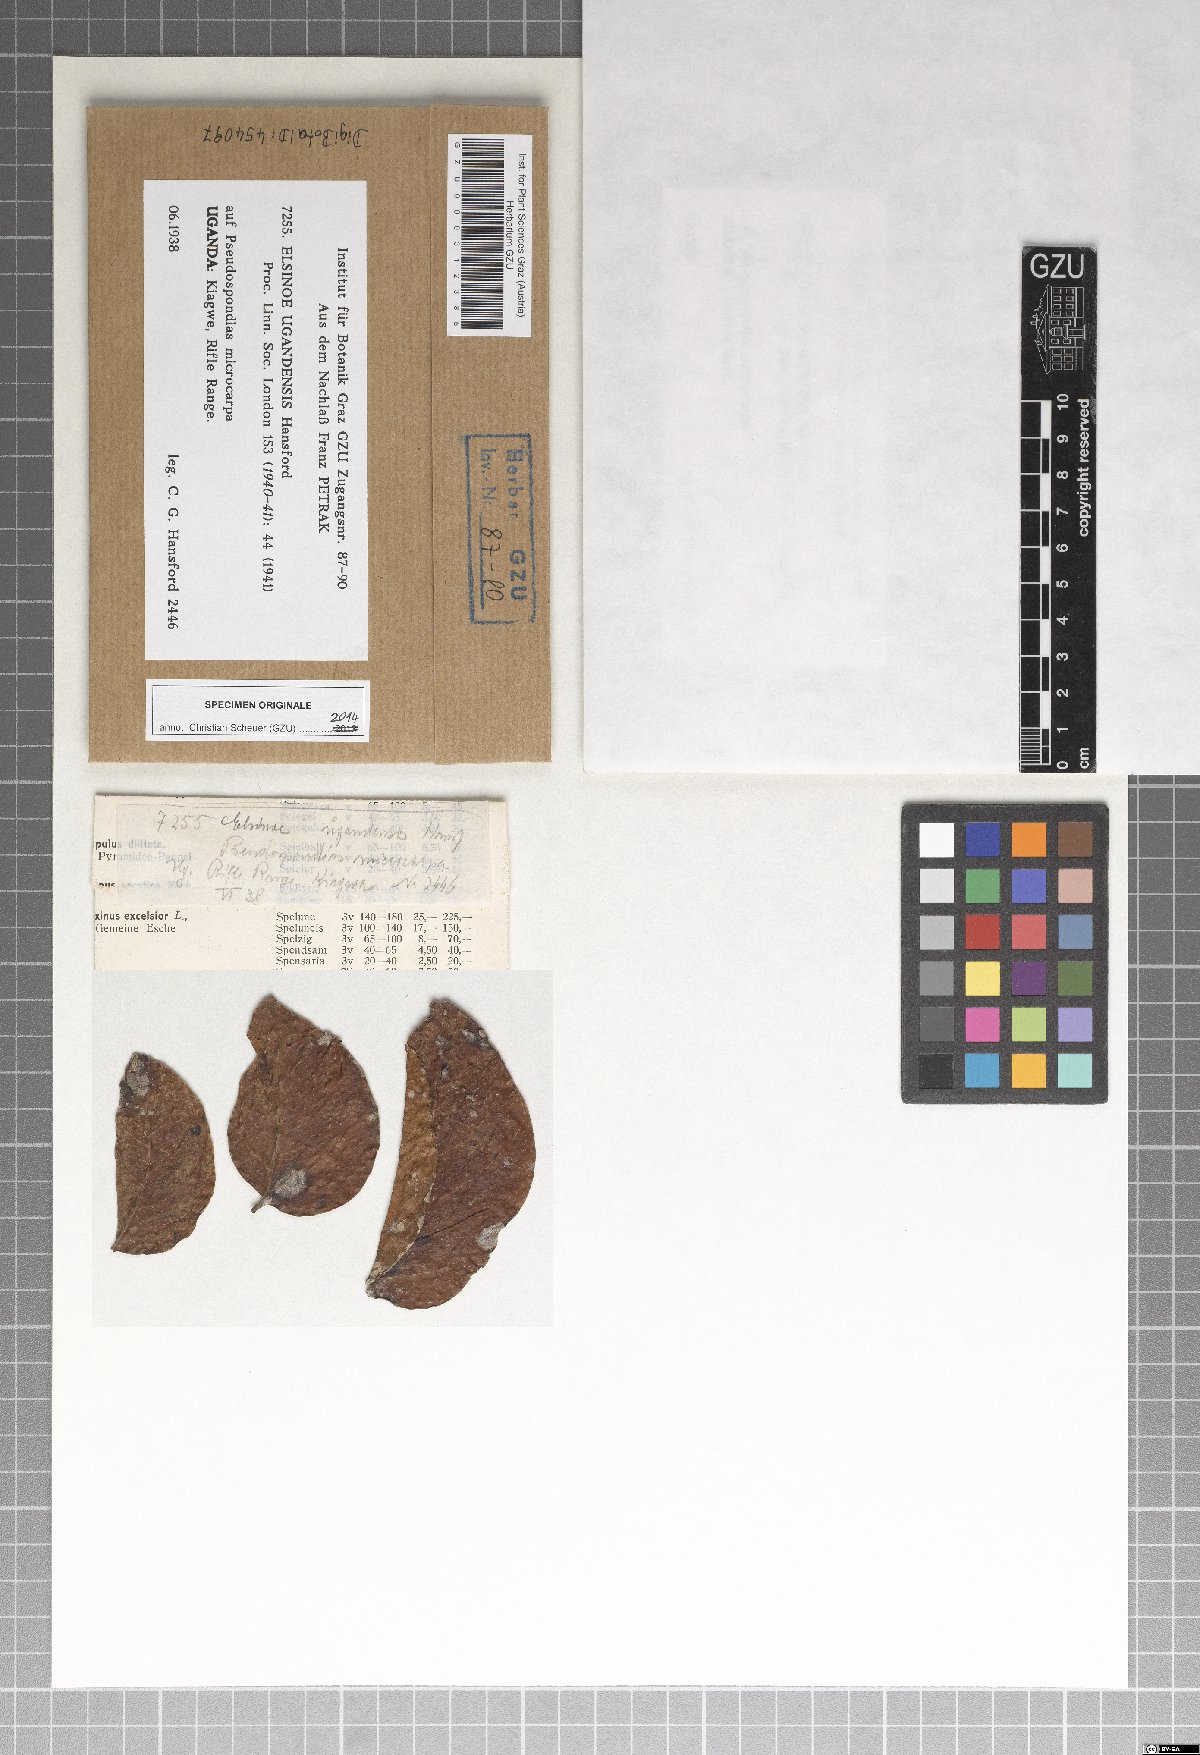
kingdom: Fungi
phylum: Ascomycota
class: Dothideomycetes
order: Myriangiales
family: Elsinoaceae
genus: Elsinoe
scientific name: Elsinoe ugandensis
